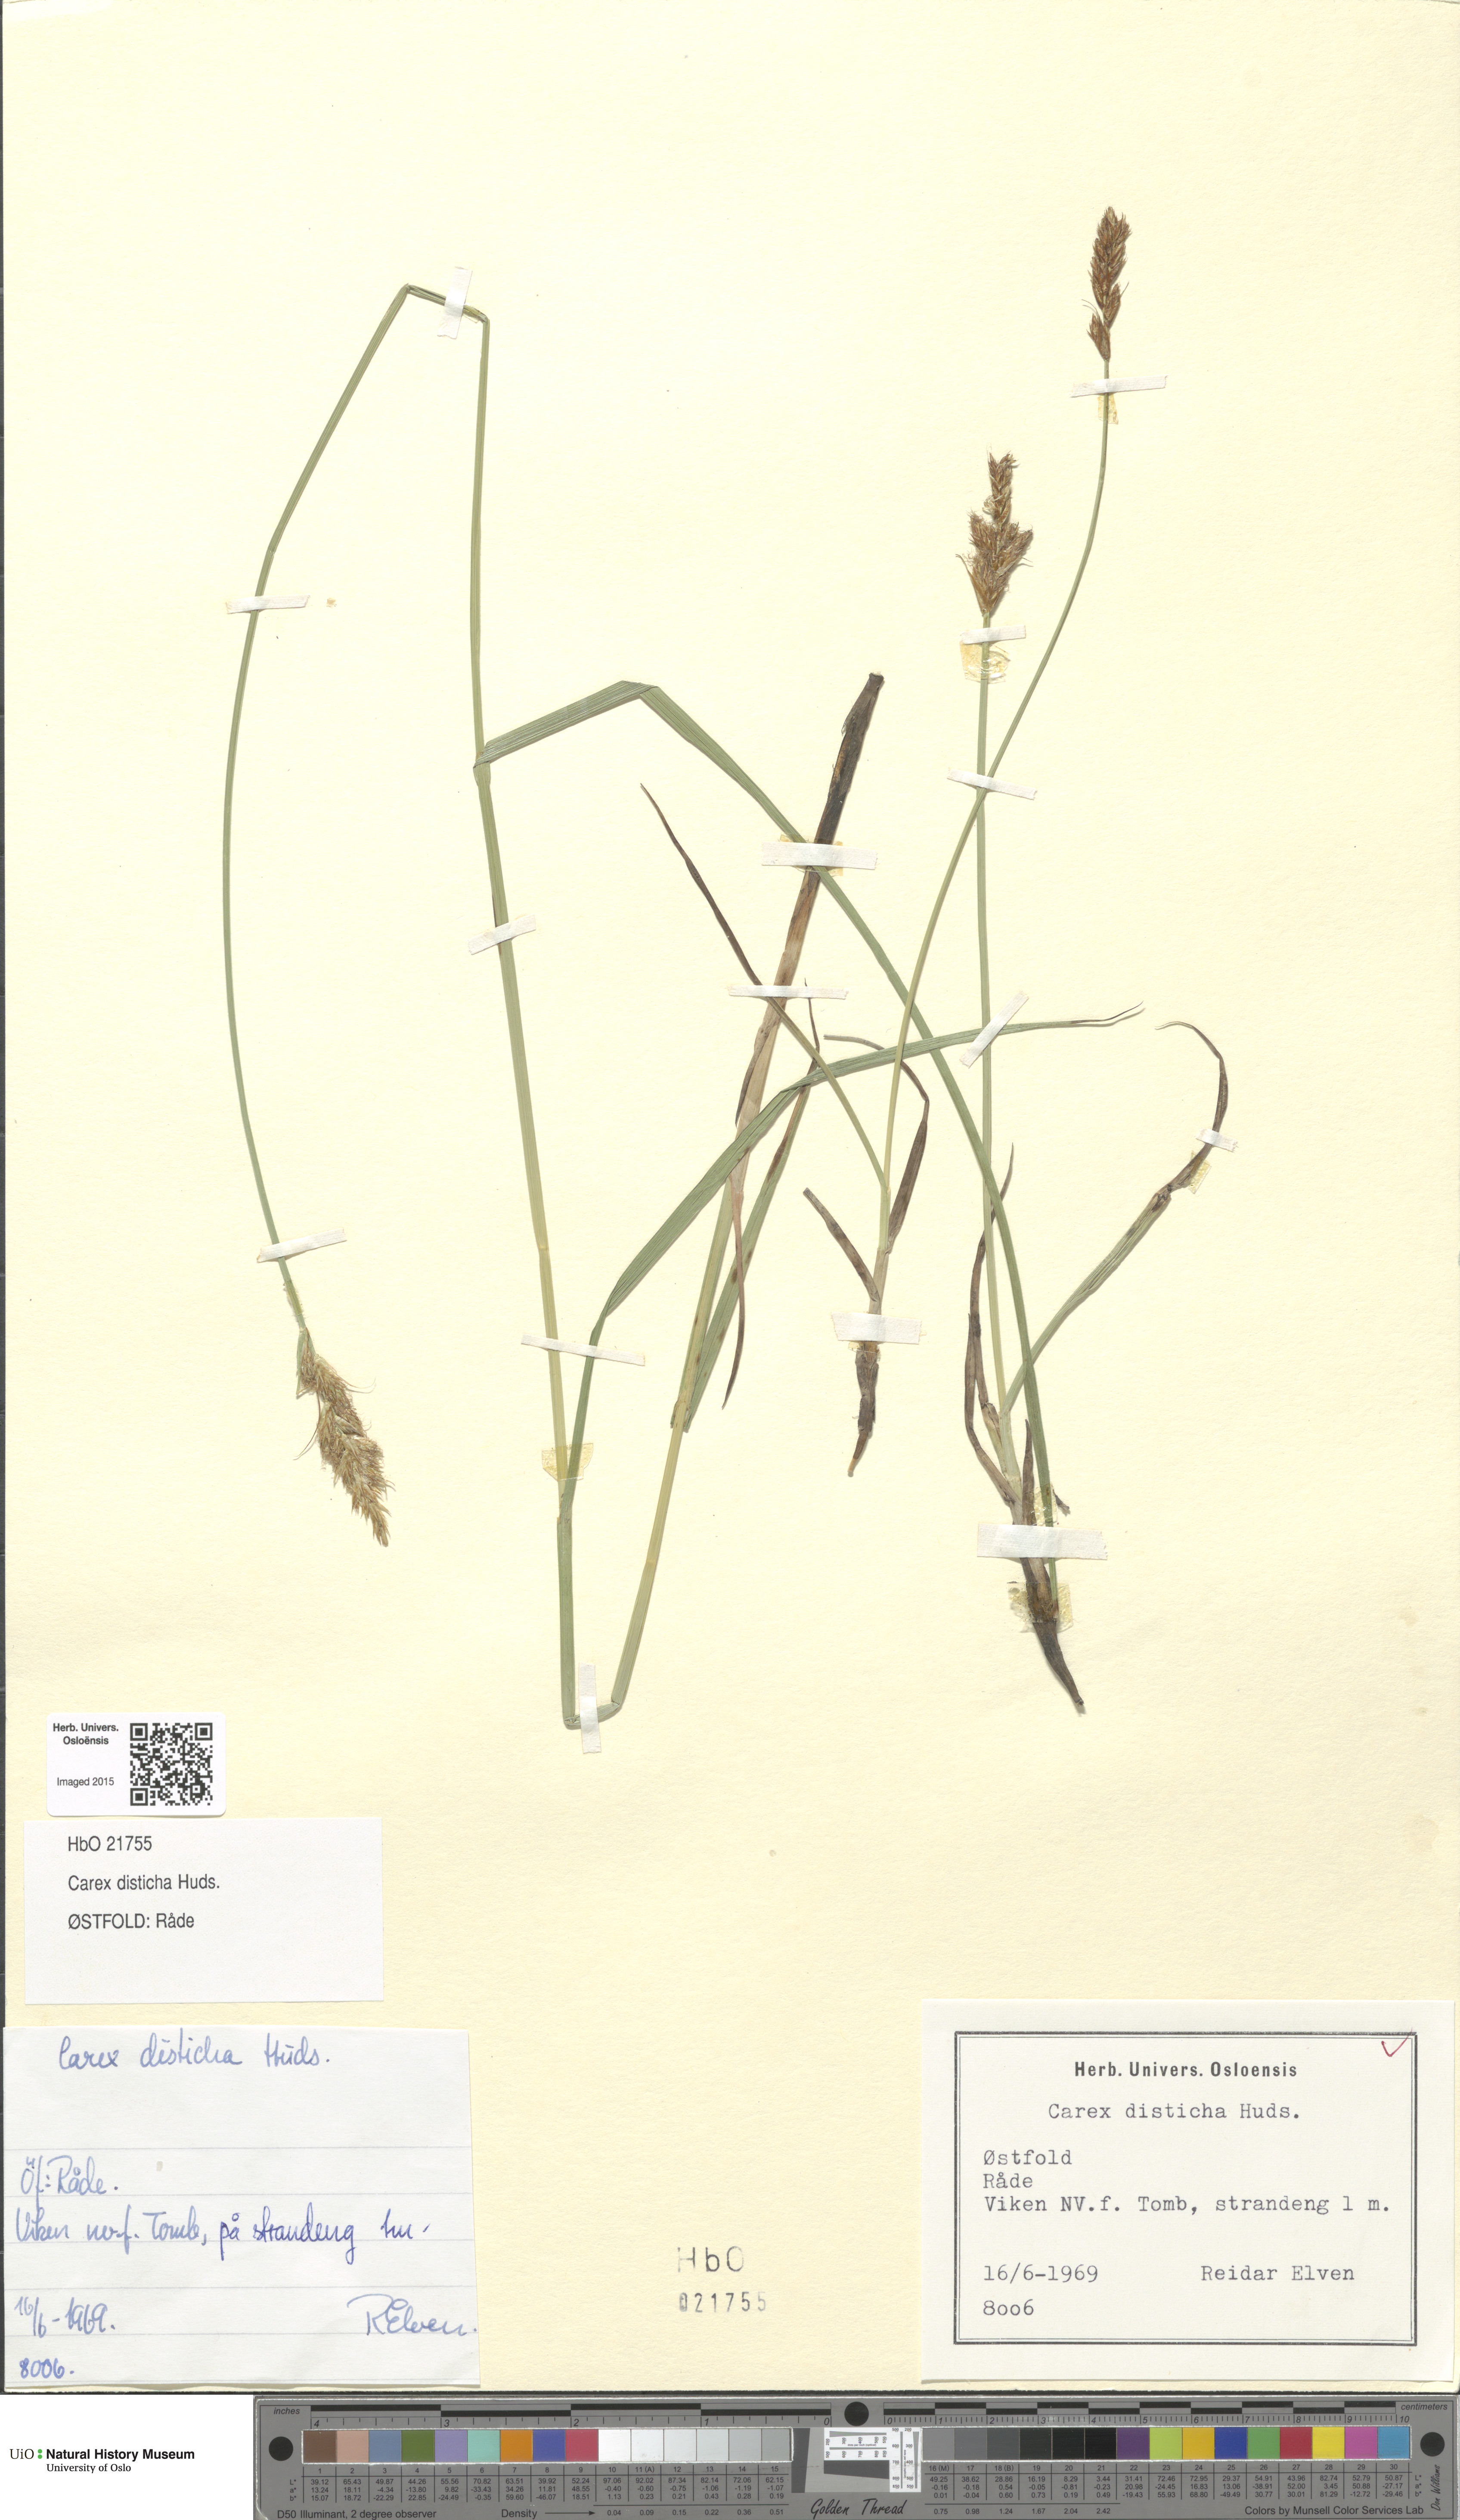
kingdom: Plantae
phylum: Tracheophyta
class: Liliopsida
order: Poales
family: Cyperaceae
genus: Carex
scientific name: Carex disticha
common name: Brown sedge
